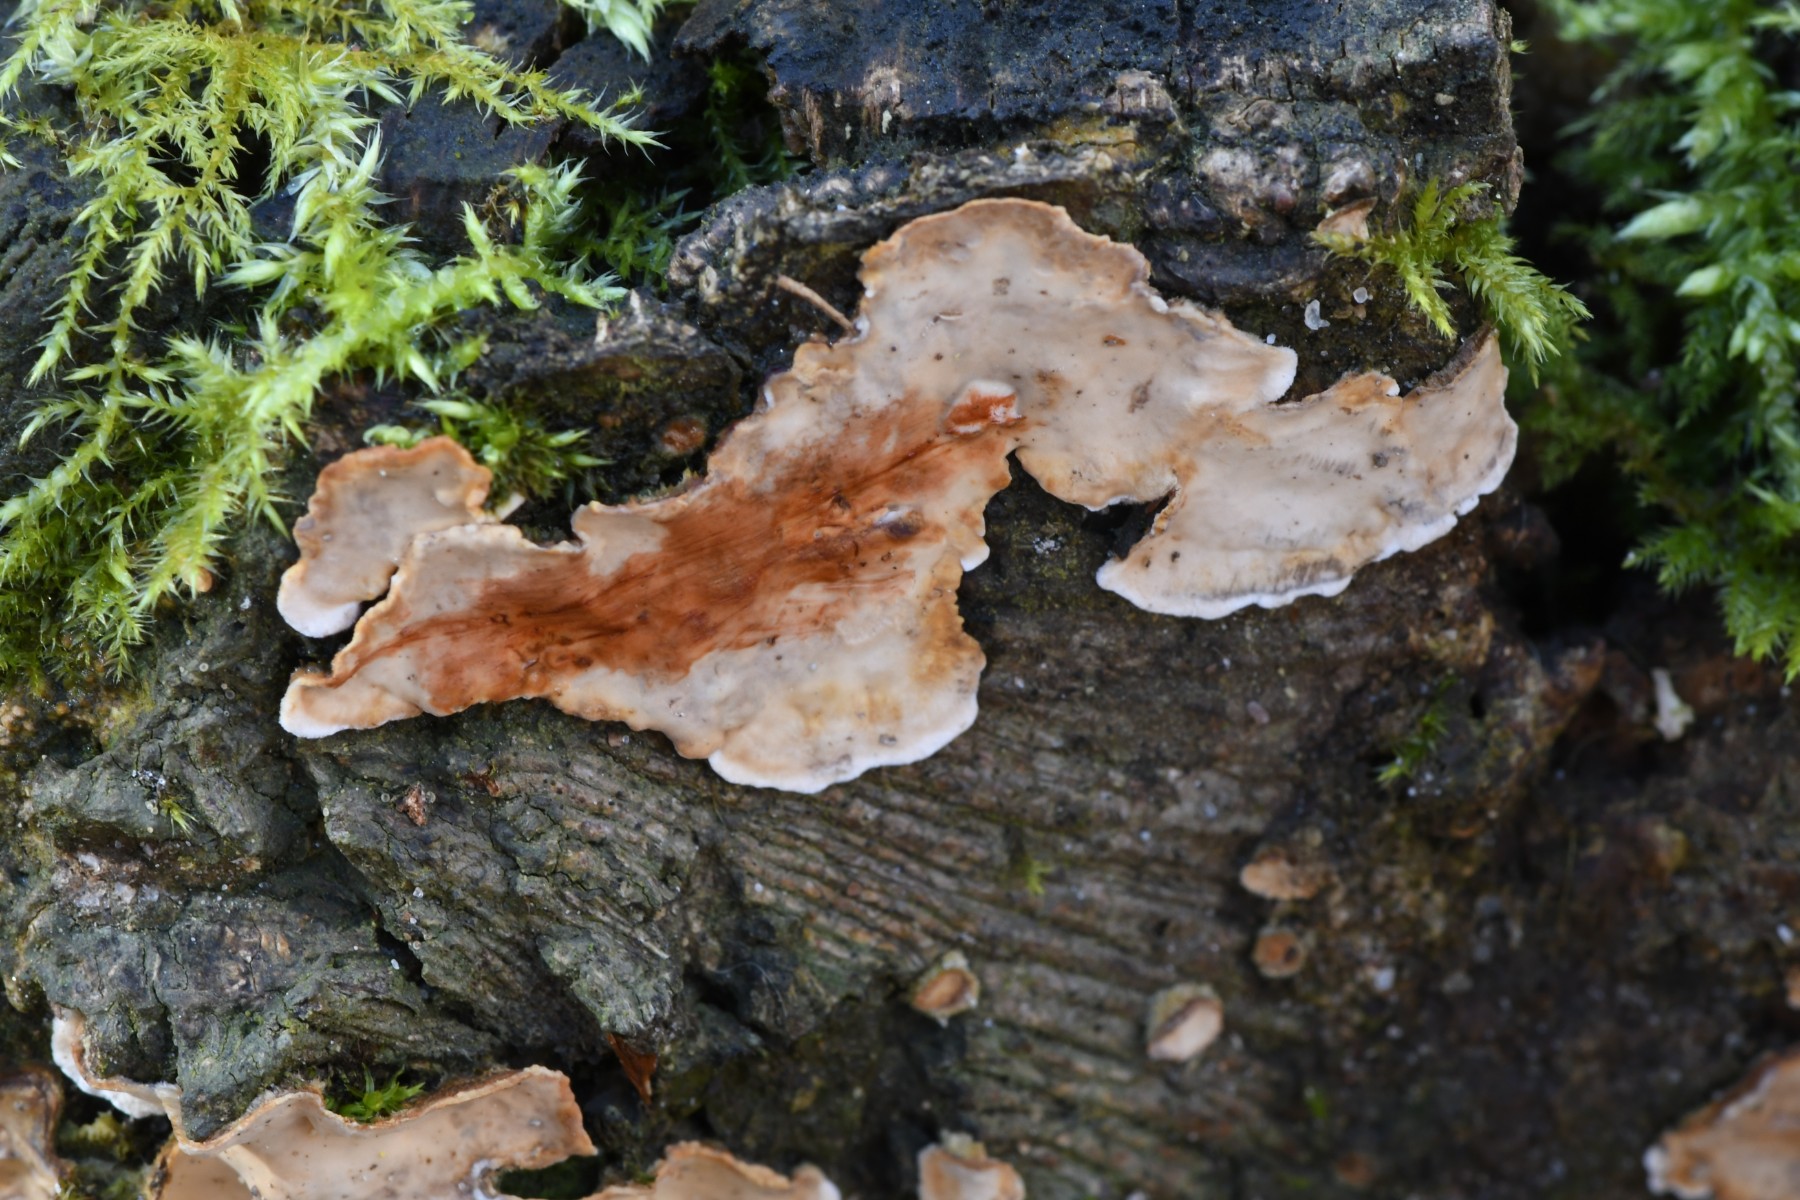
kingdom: Fungi
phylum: Basidiomycota
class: Agaricomycetes
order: Russulales
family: Stereaceae
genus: Stereum
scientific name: Stereum rugosum
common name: rynket lædersvamp
